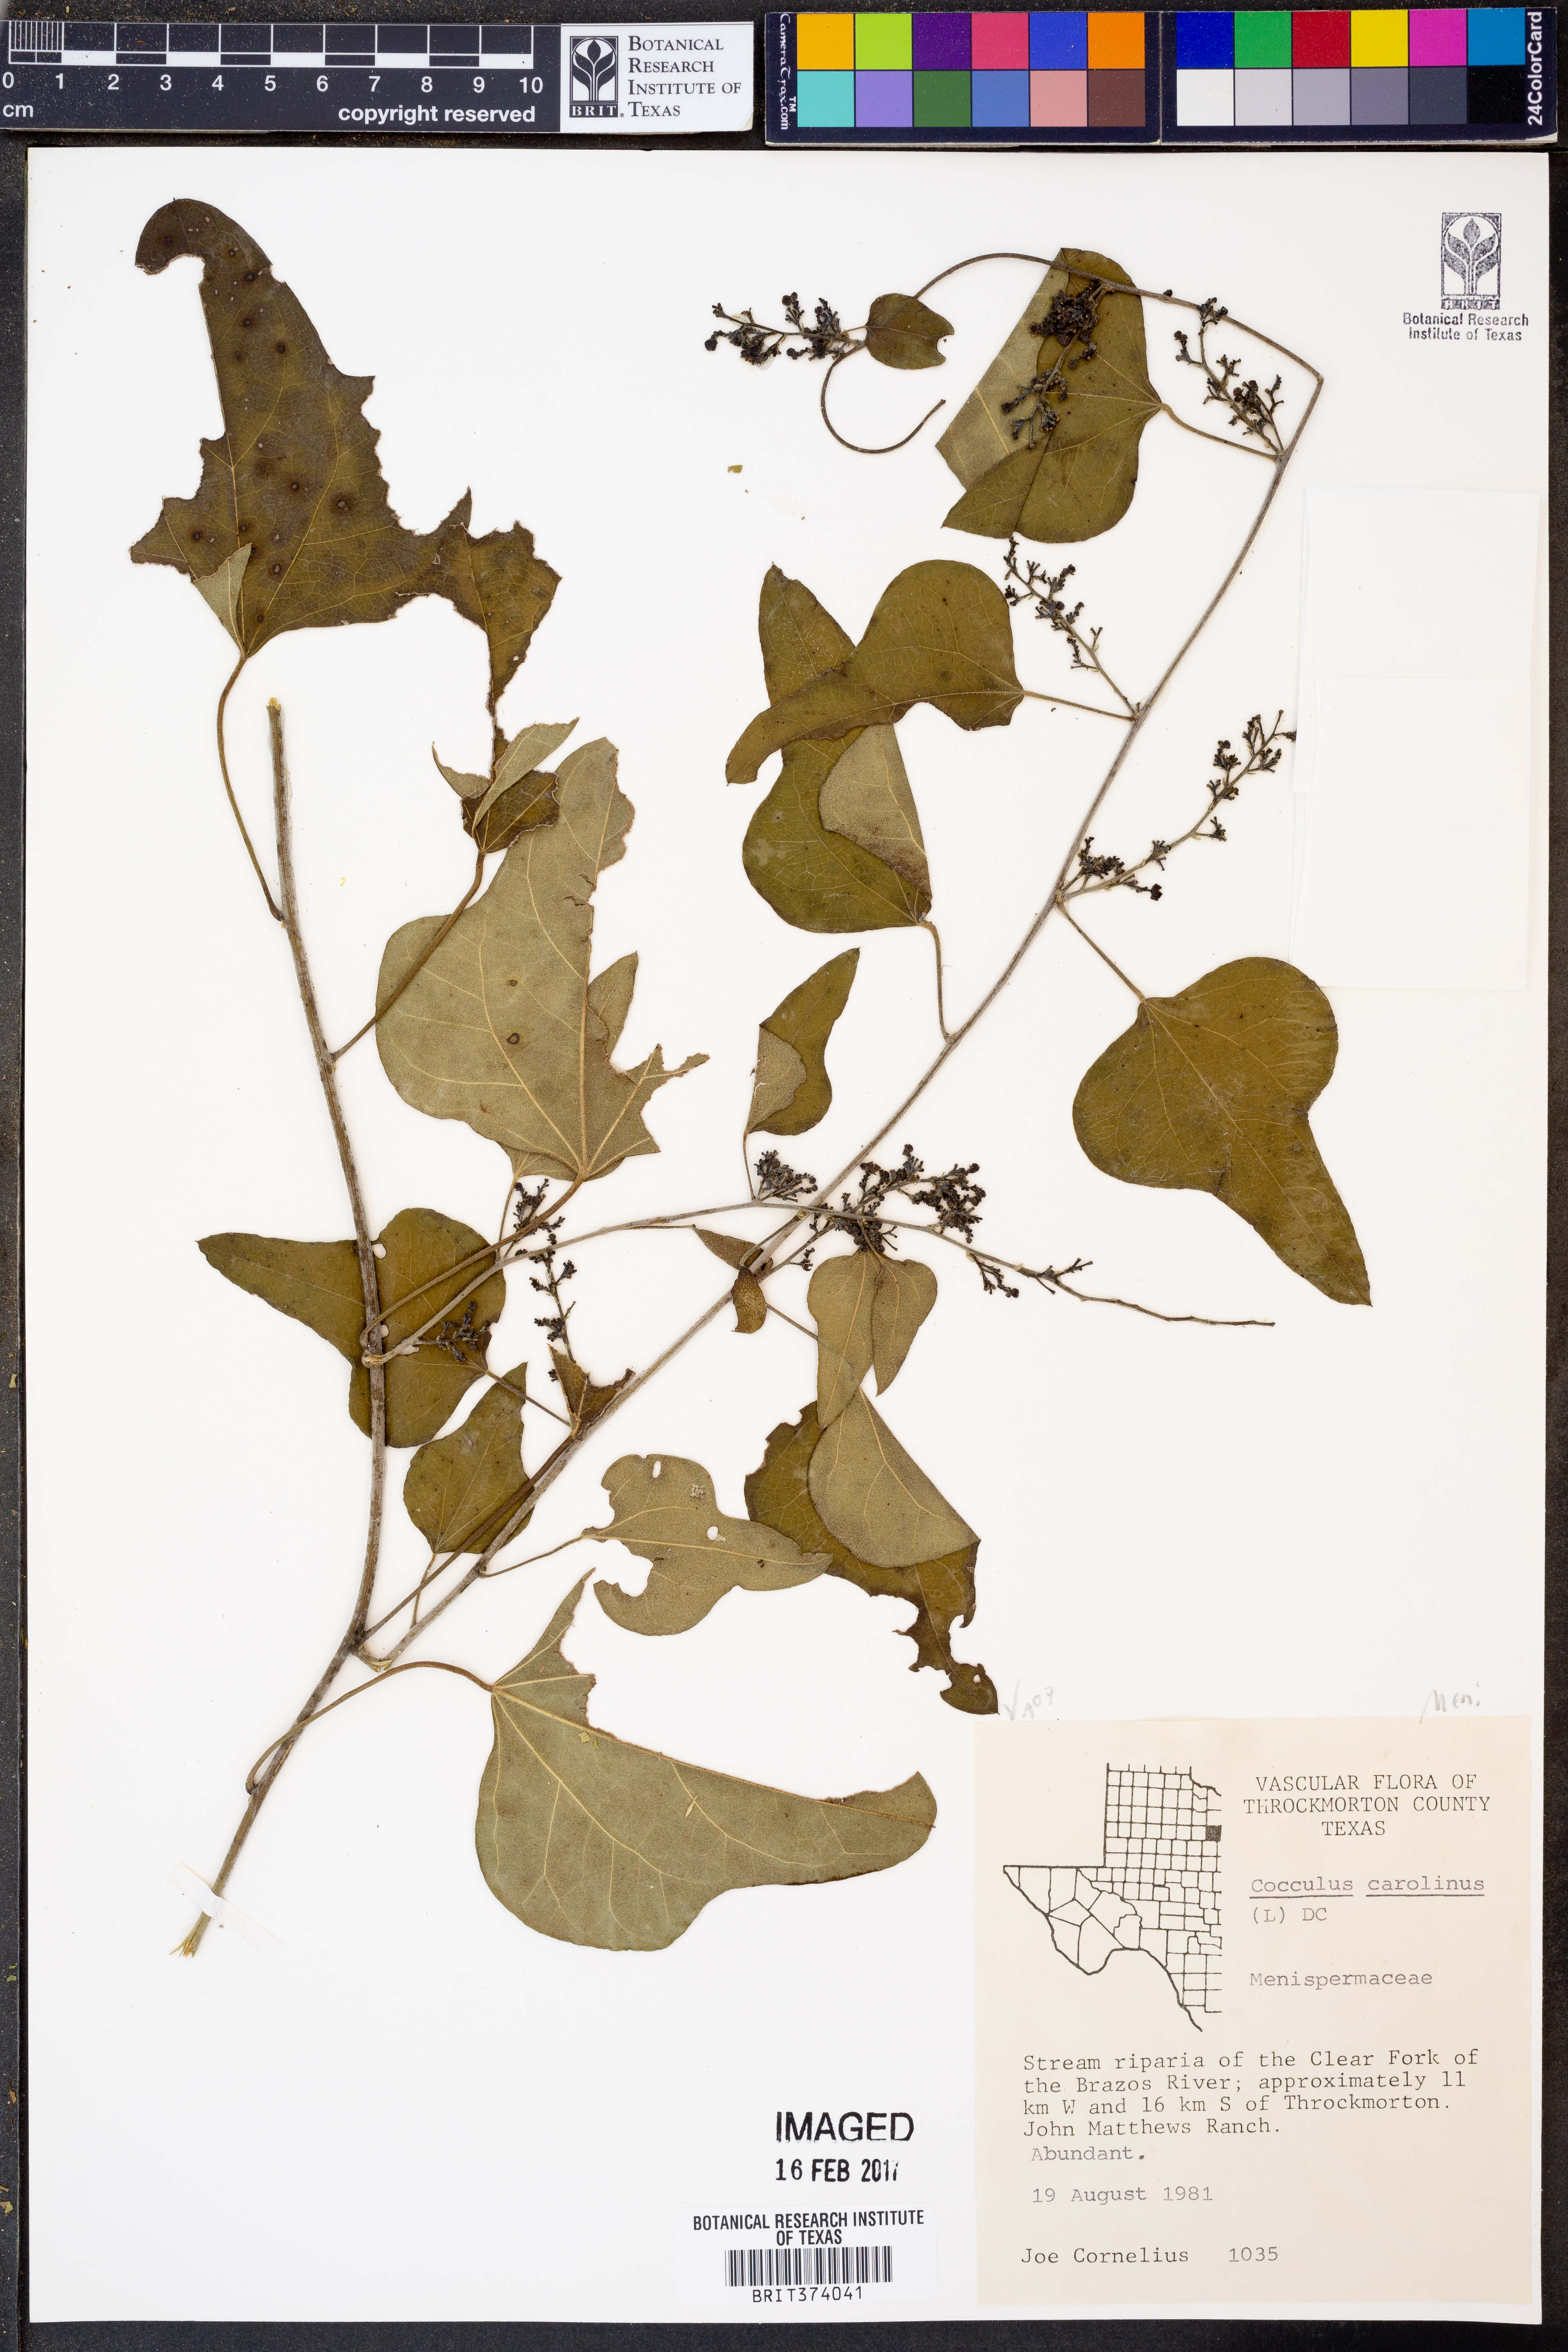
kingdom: Plantae
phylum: Tracheophyta
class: Magnoliopsida
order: Ranunculales
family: Menispermaceae
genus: Cocculus
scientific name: Cocculus carolinus
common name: Carolina moonseed
